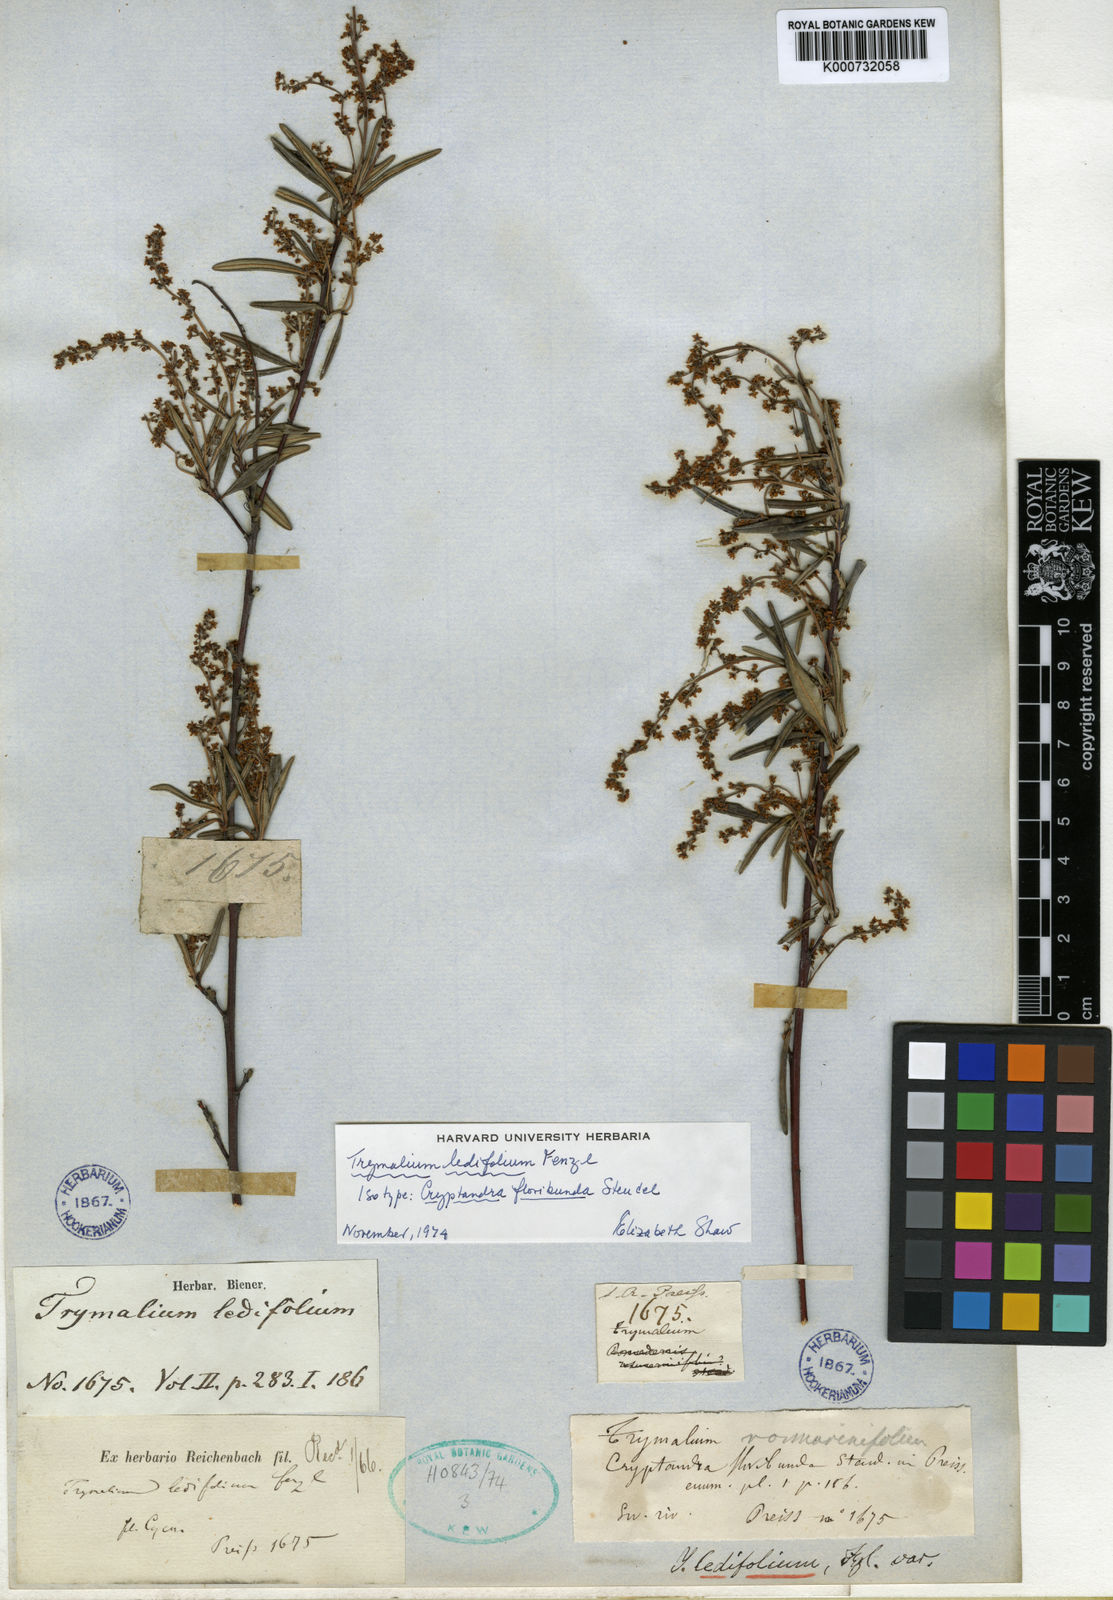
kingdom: Plantae
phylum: Tracheophyta
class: Magnoliopsida
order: Rosales
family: Rhamnaceae
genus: Trymalium
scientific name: Trymalium ledifolium
